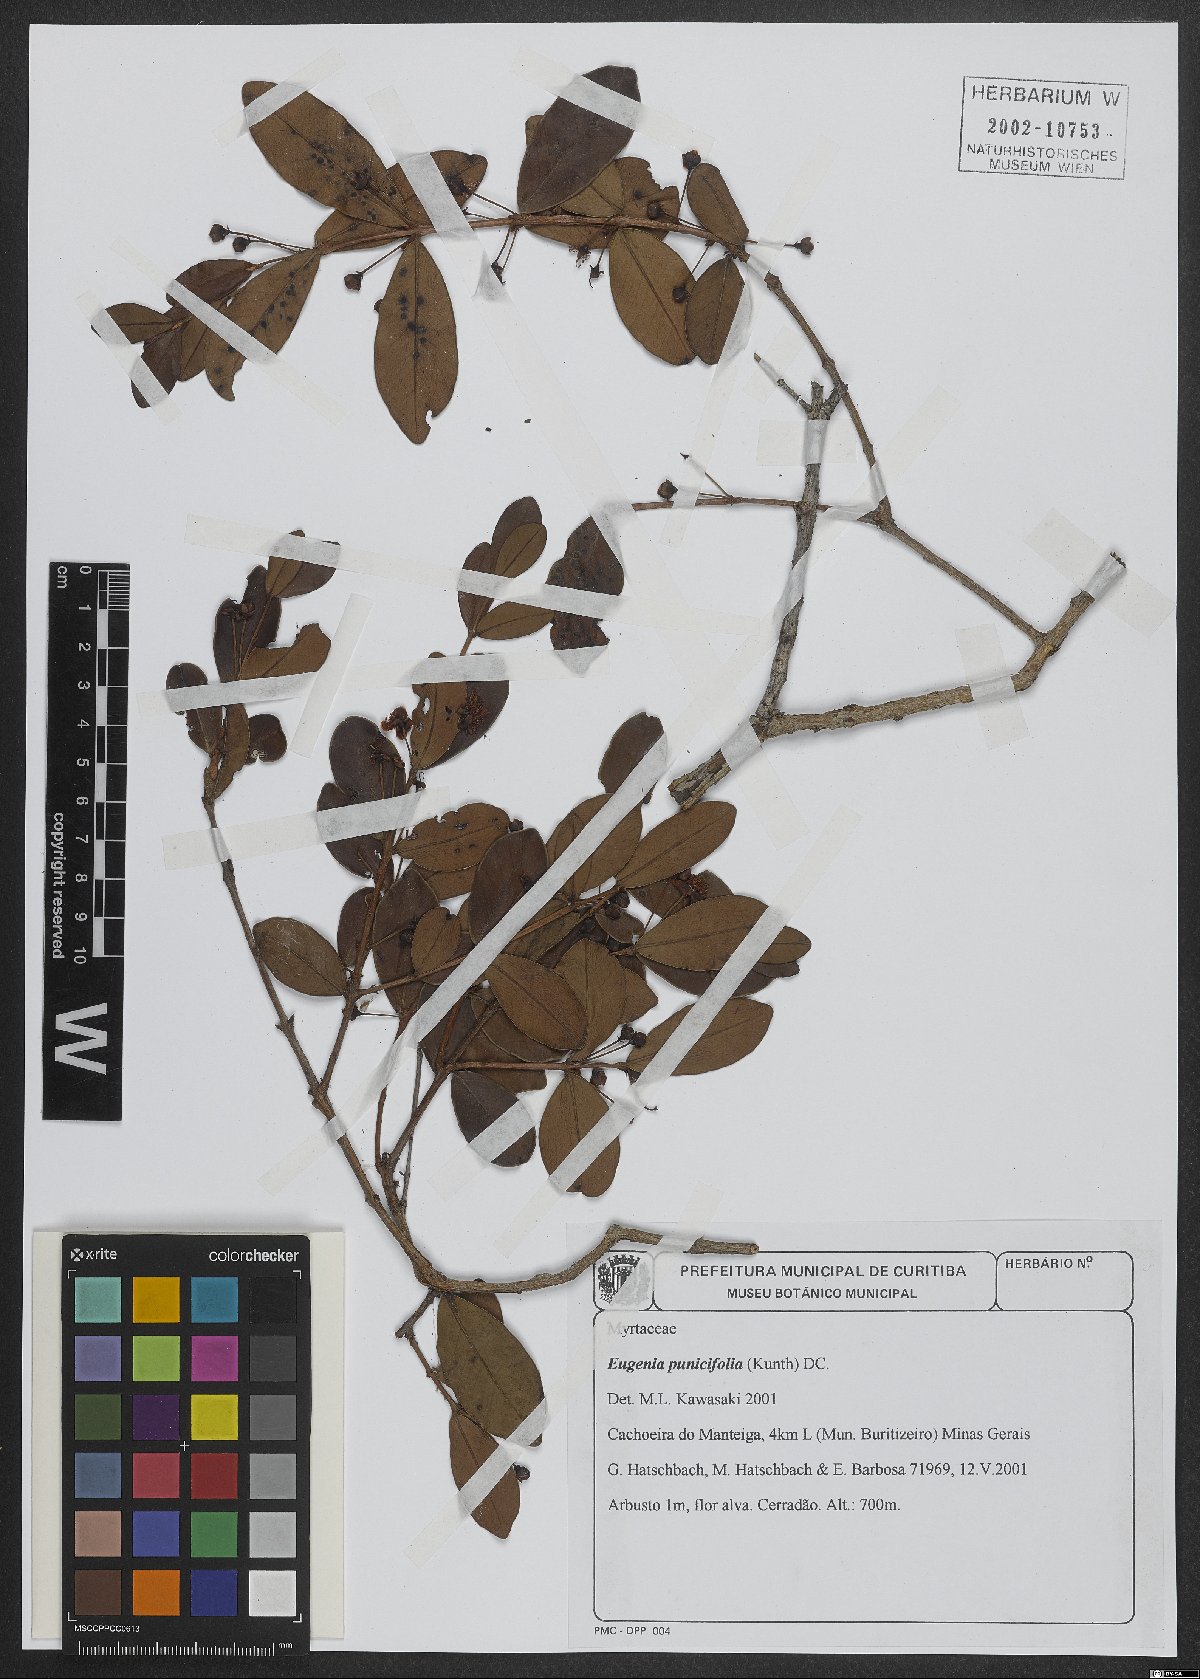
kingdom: Plantae
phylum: Tracheophyta
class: Magnoliopsida
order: Myrtales
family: Myrtaceae
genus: Eugenia
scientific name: Eugenia punicifolia
